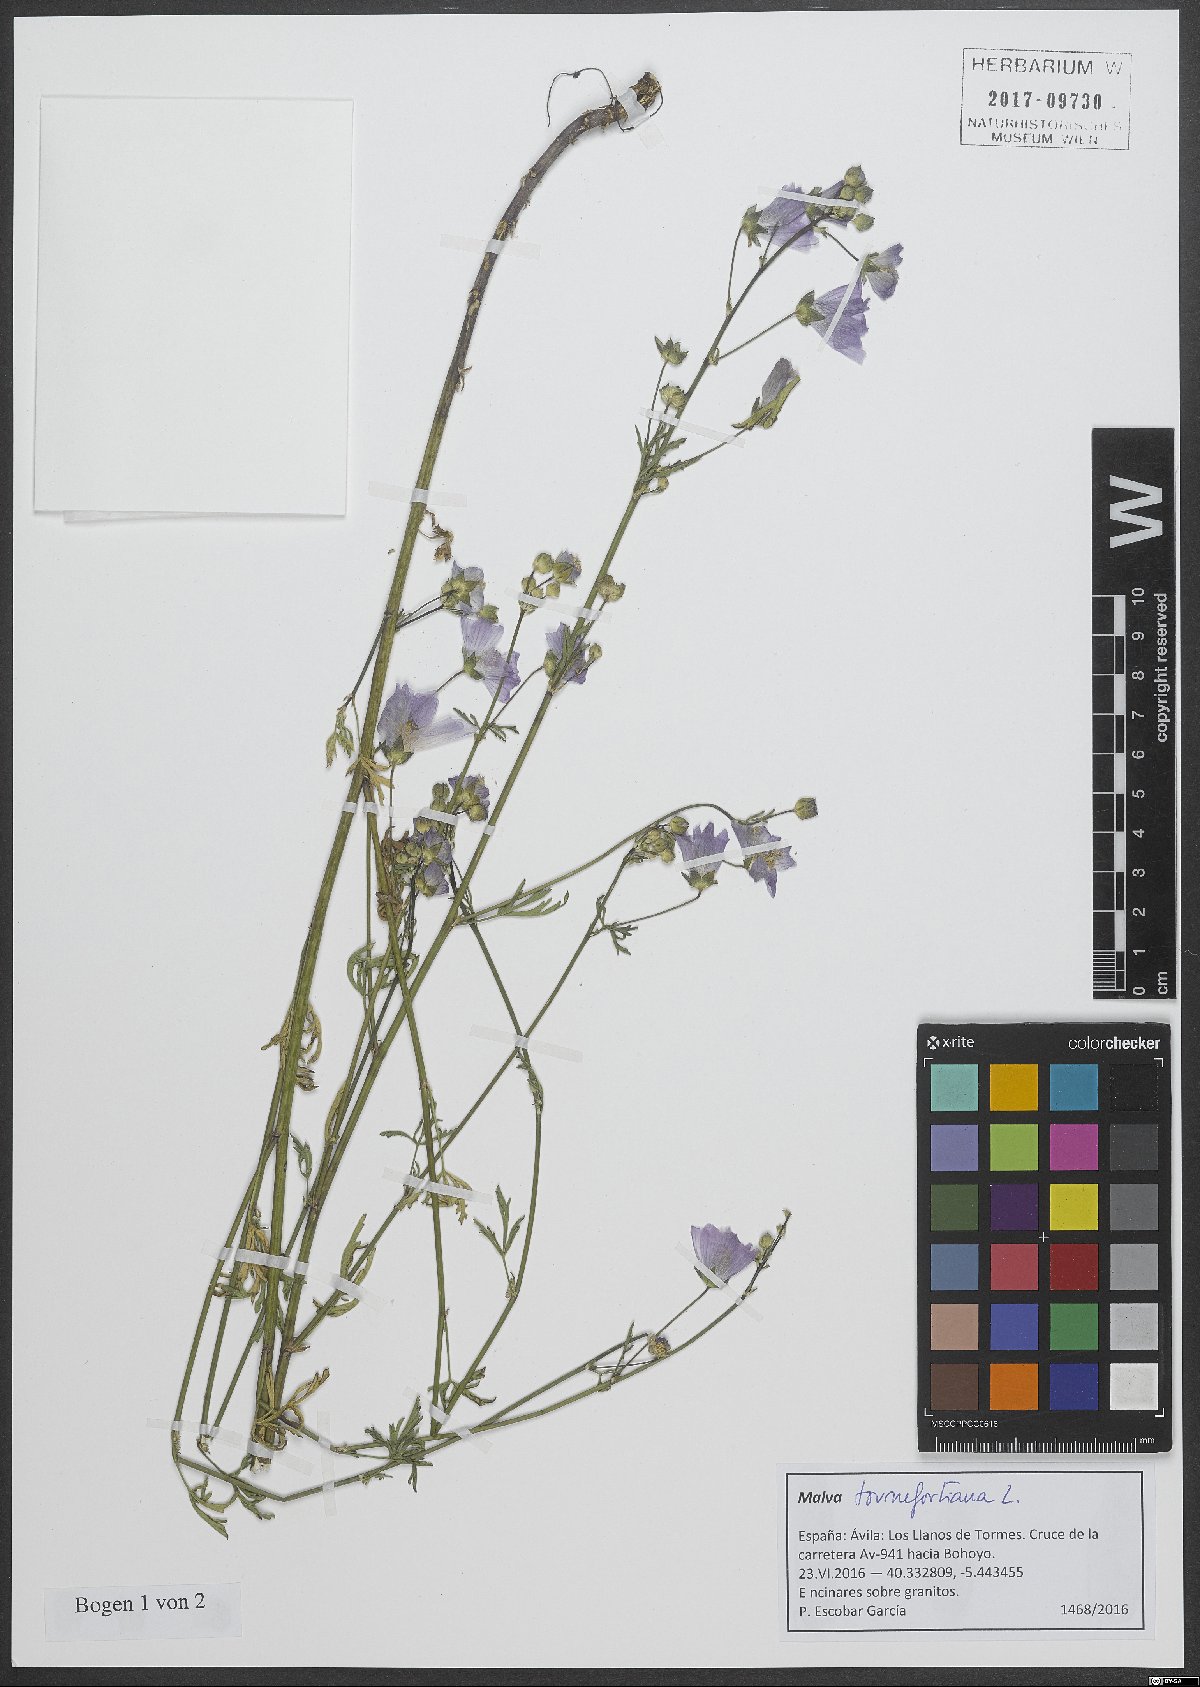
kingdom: Plantae
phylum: Tracheophyta
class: Magnoliopsida
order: Malvales
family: Malvaceae
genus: Malva
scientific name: Malva tournefortiana
